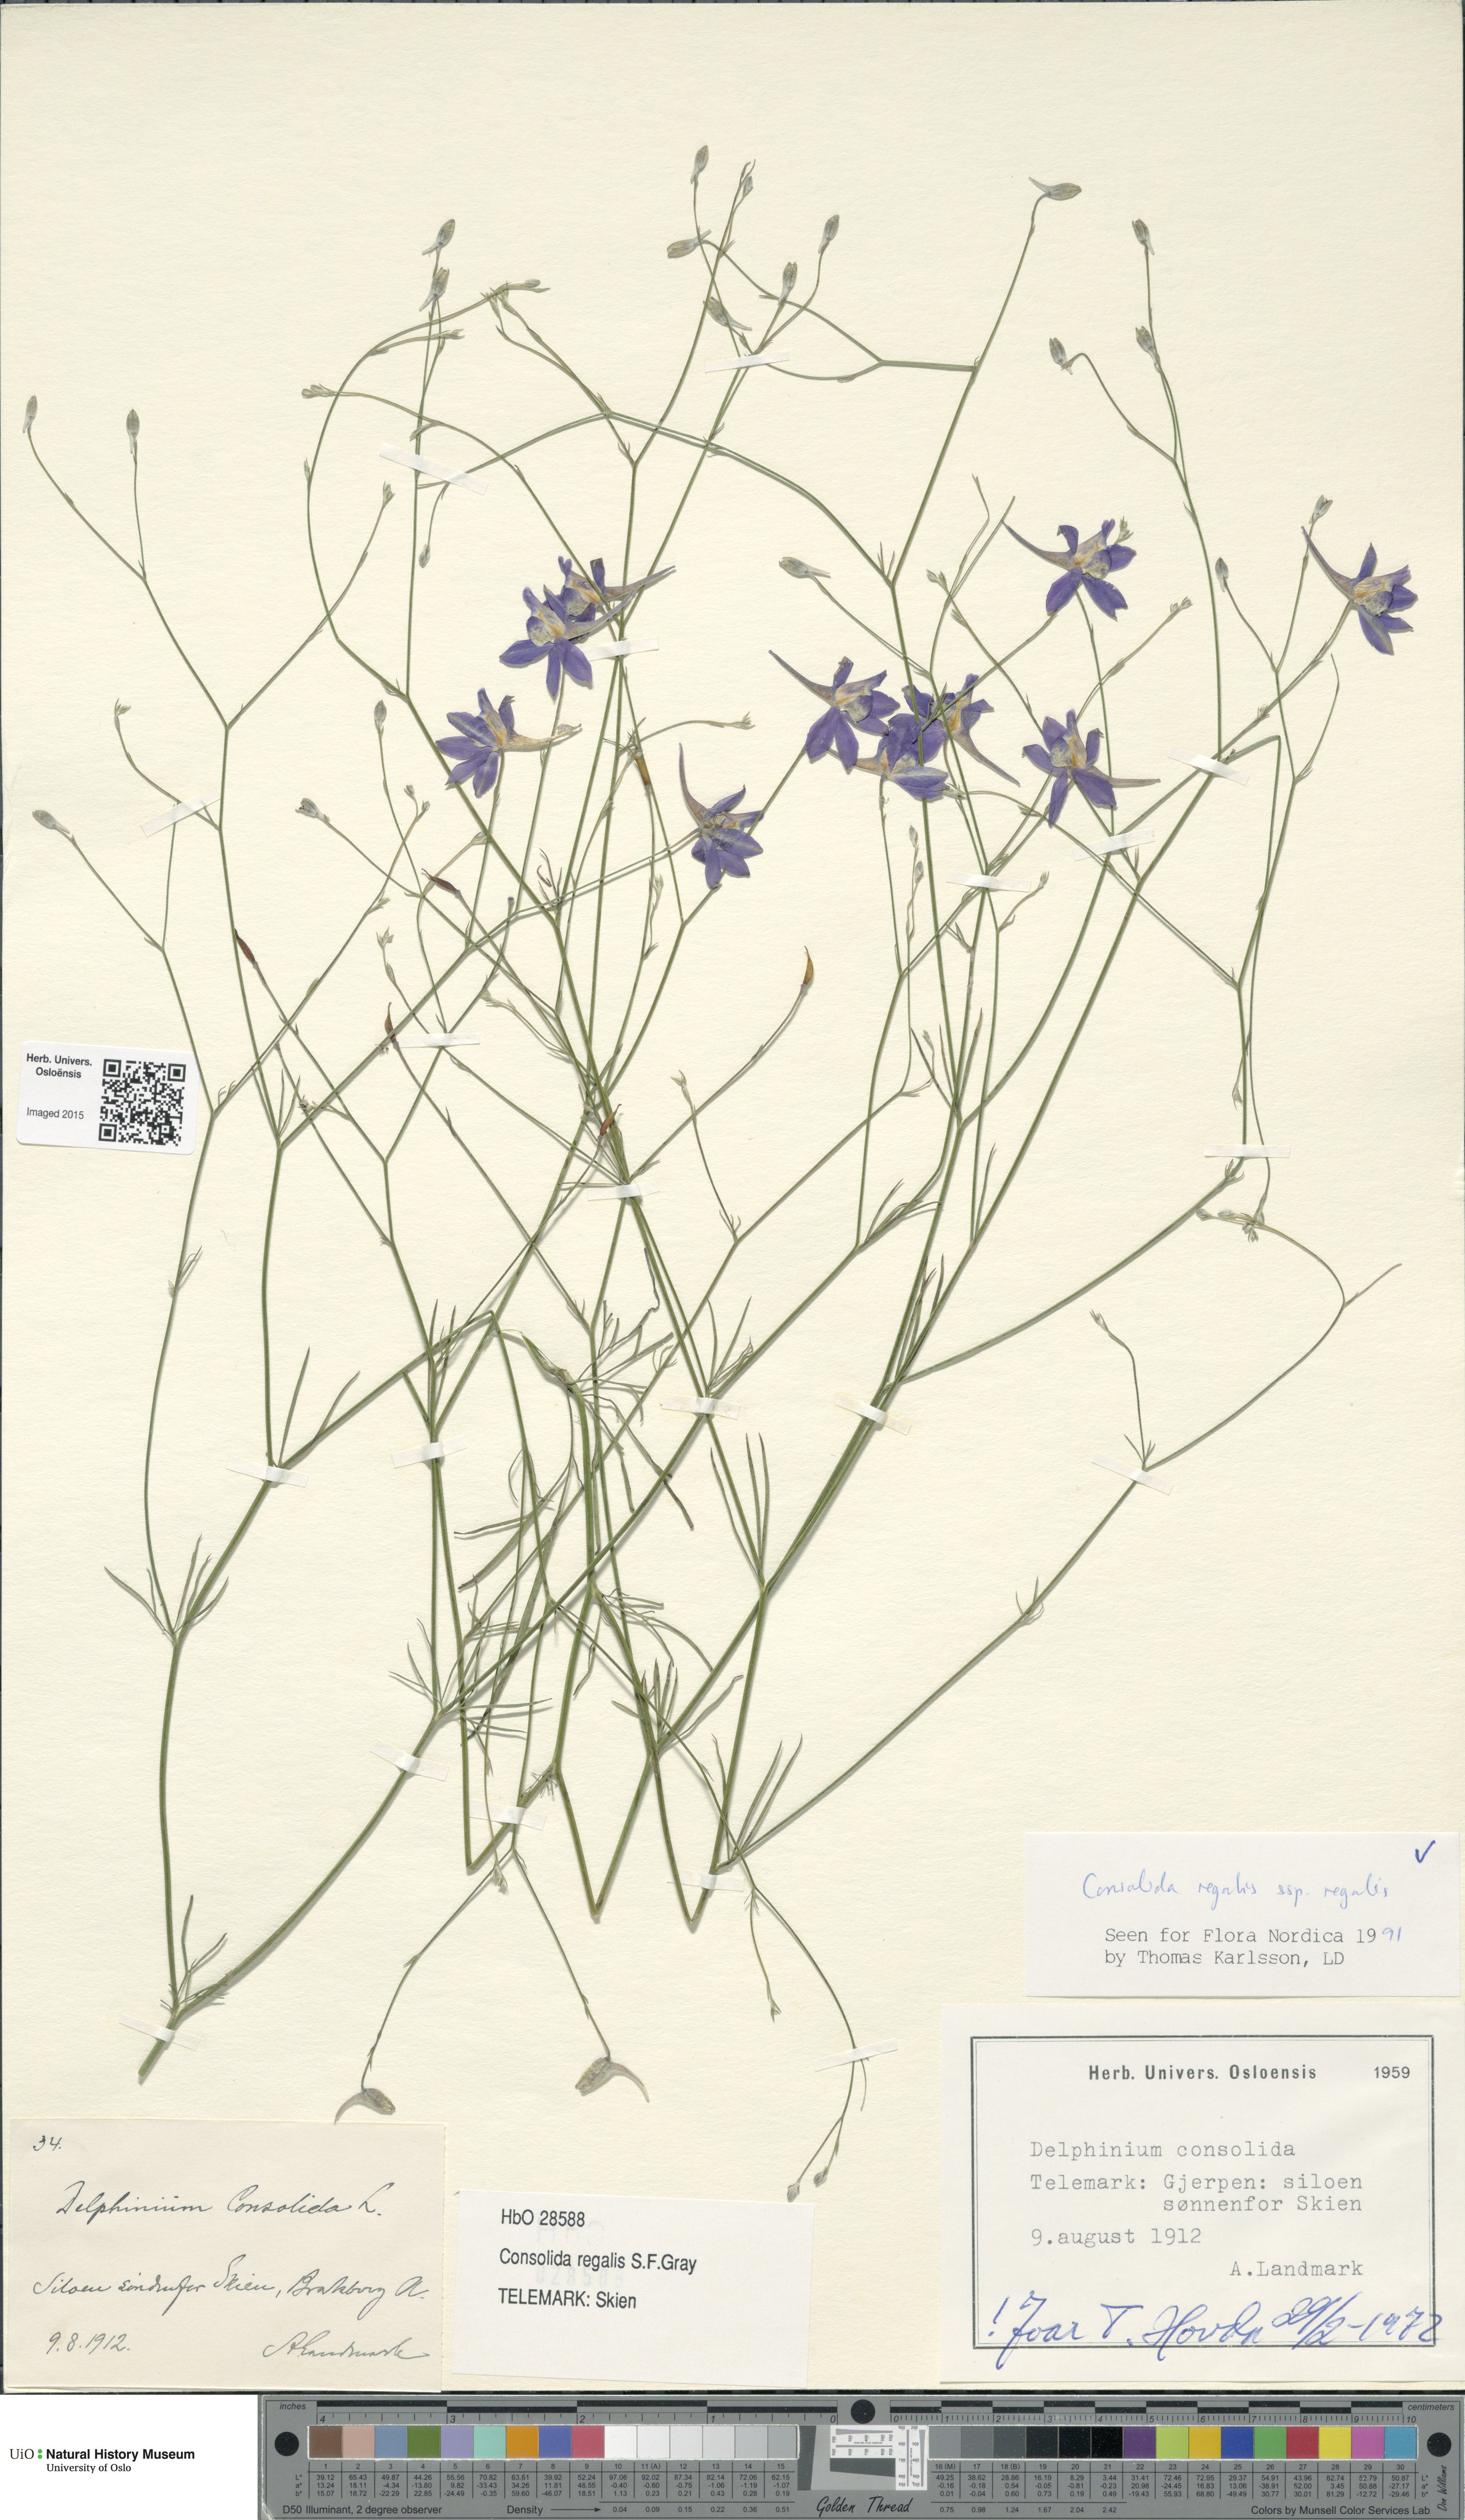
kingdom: Plantae
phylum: Tracheophyta
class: Magnoliopsida
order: Ranunculales
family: Ranunculaceae
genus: Delphinium
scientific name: Delphinium consolida
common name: Branching larkspur
